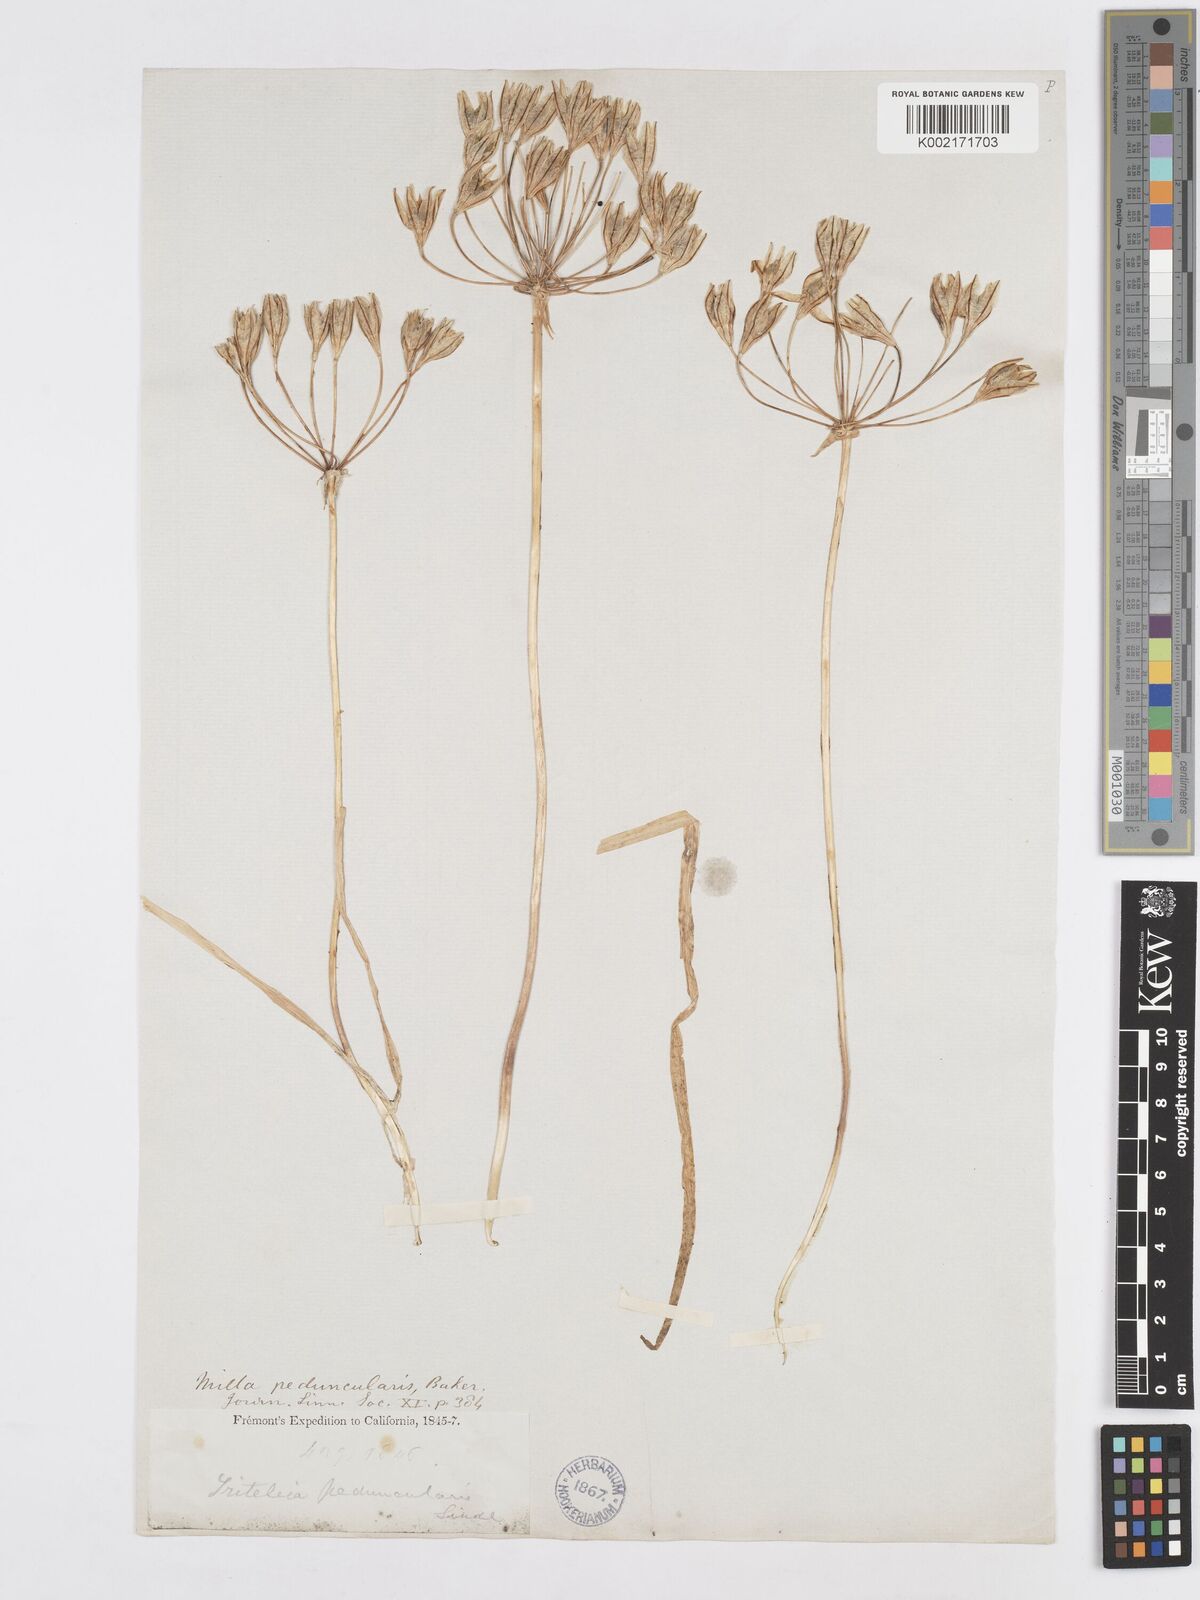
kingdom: Plantae
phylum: Tracheophyta
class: Liliopsida
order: Asparagales
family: Asparagaceae
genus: Triteleia
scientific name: Triteleia peduncularis
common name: Long-ray brodiaea
